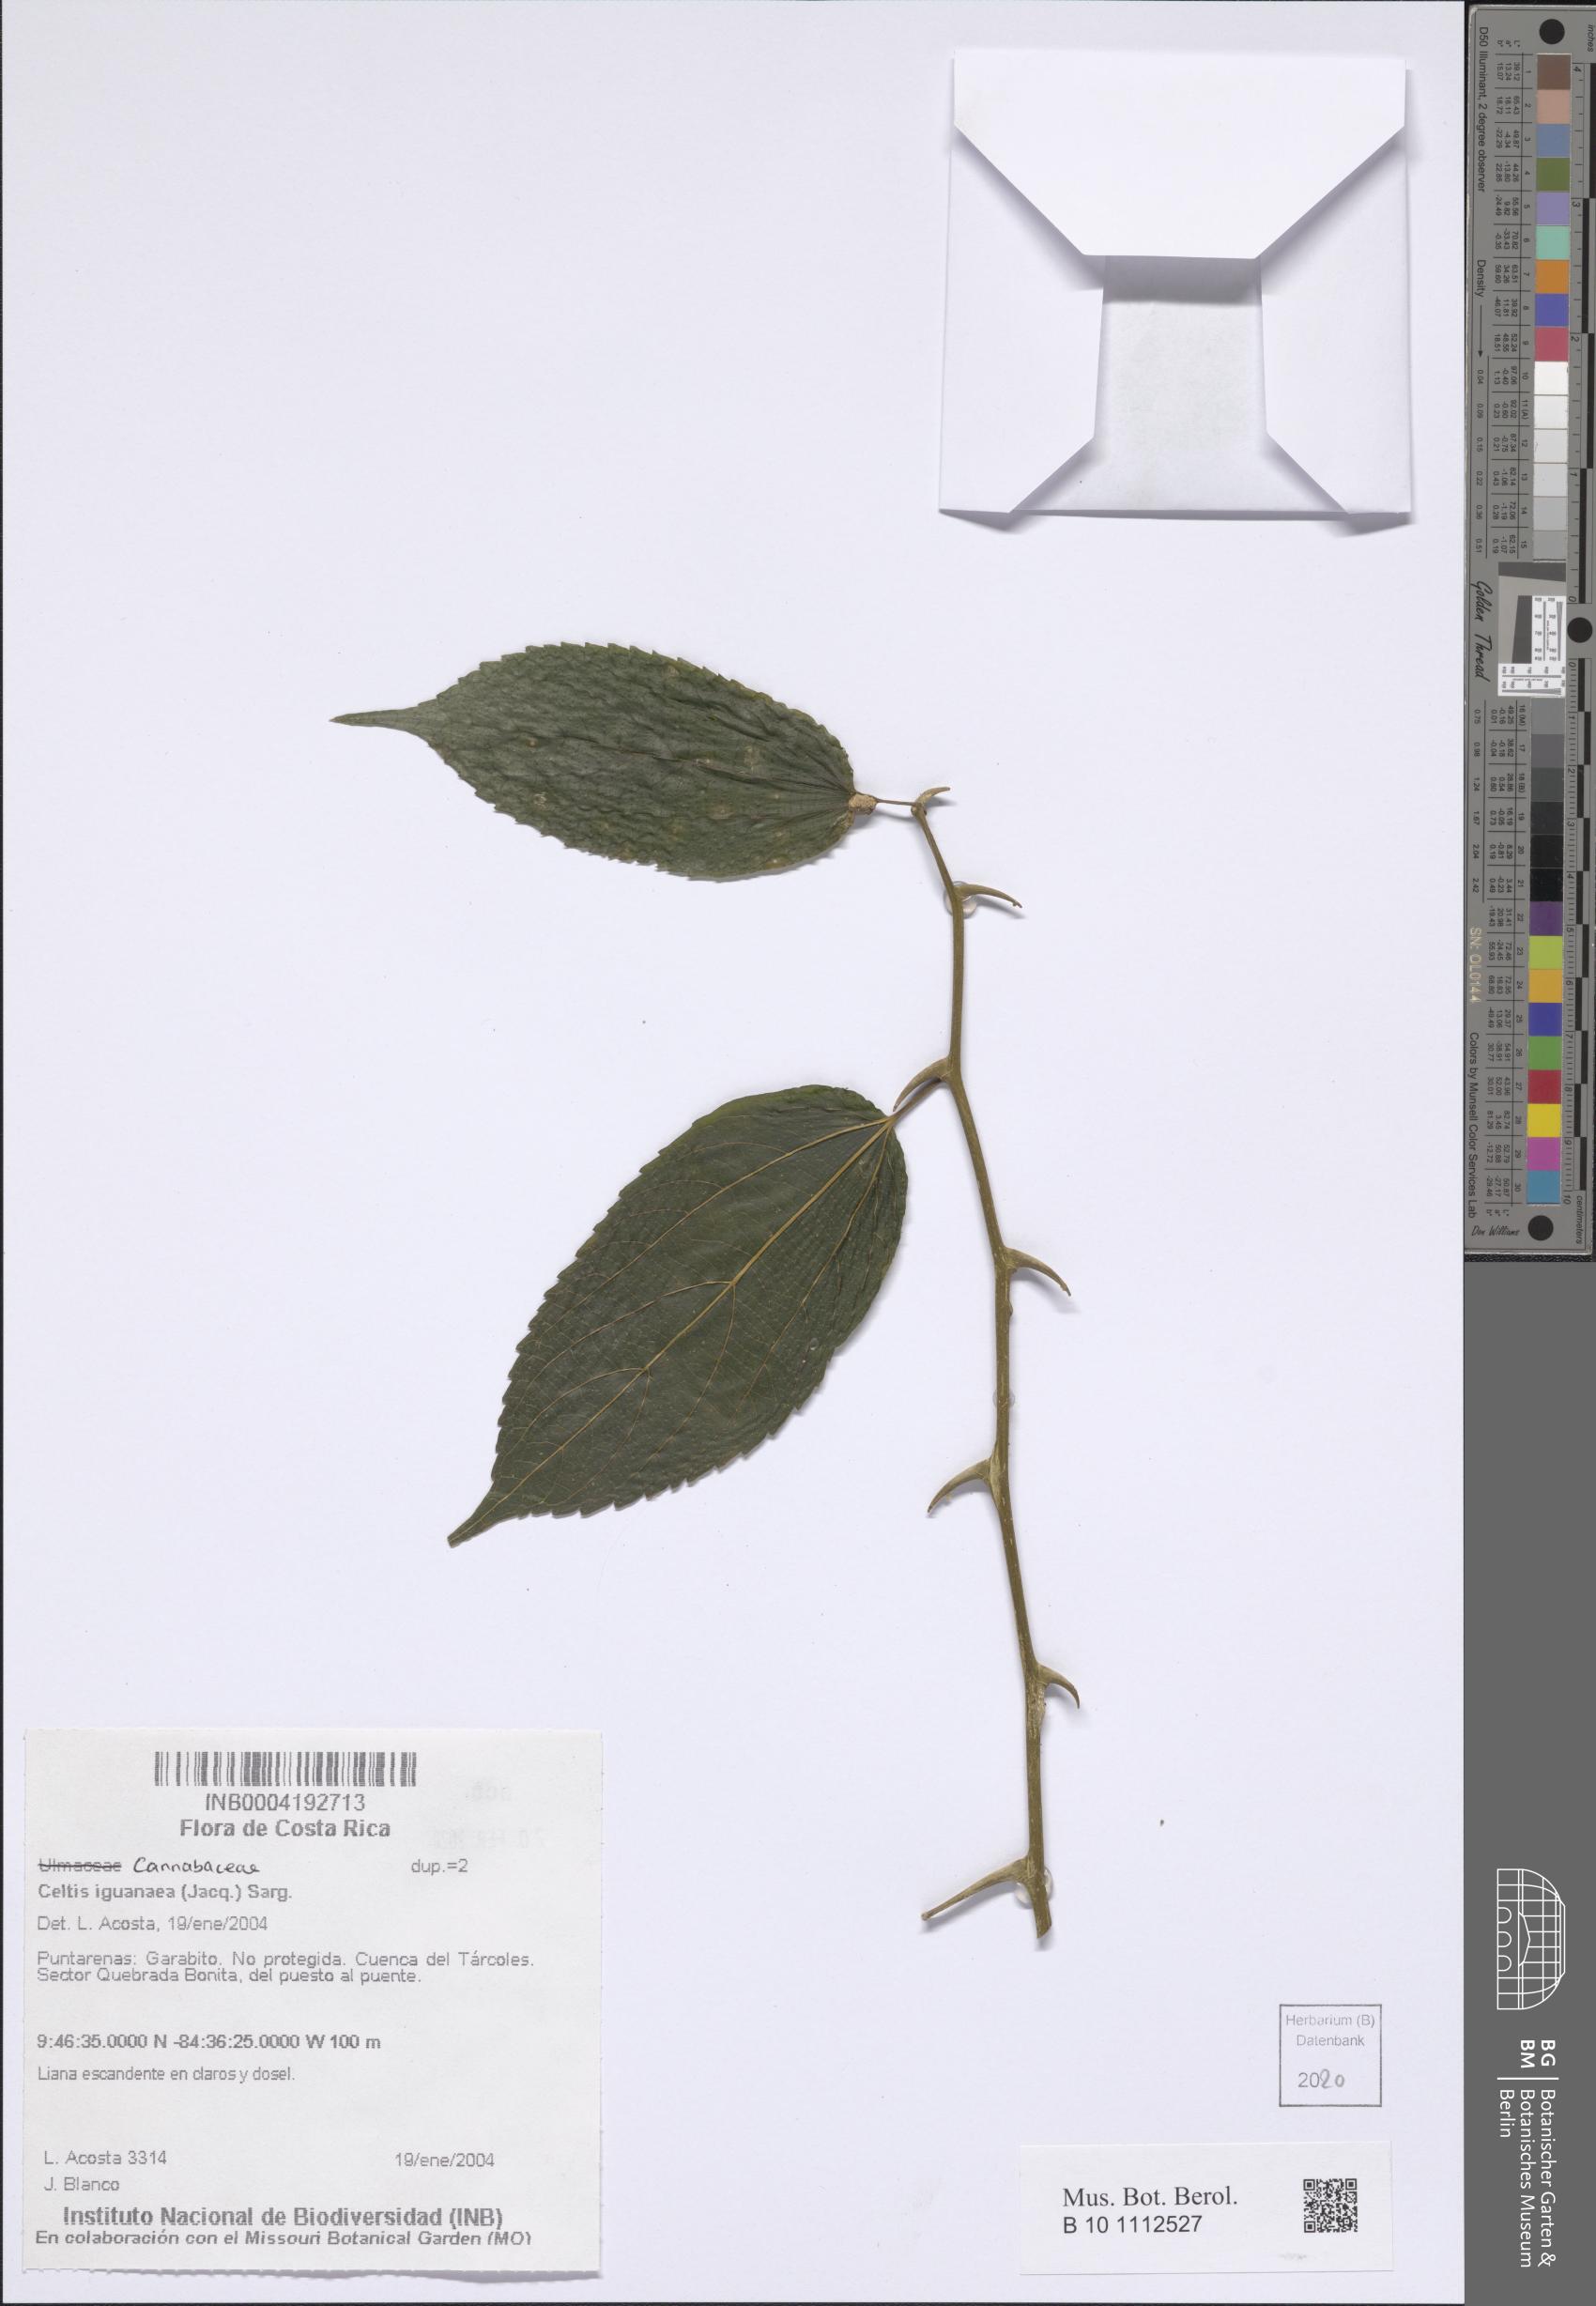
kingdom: Plantae
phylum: Tracheophyta
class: Magnoliopsida
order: Rosales
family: Cannabaceae
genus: Celtis
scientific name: Celtis iguanaea
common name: Iguana hackberry
